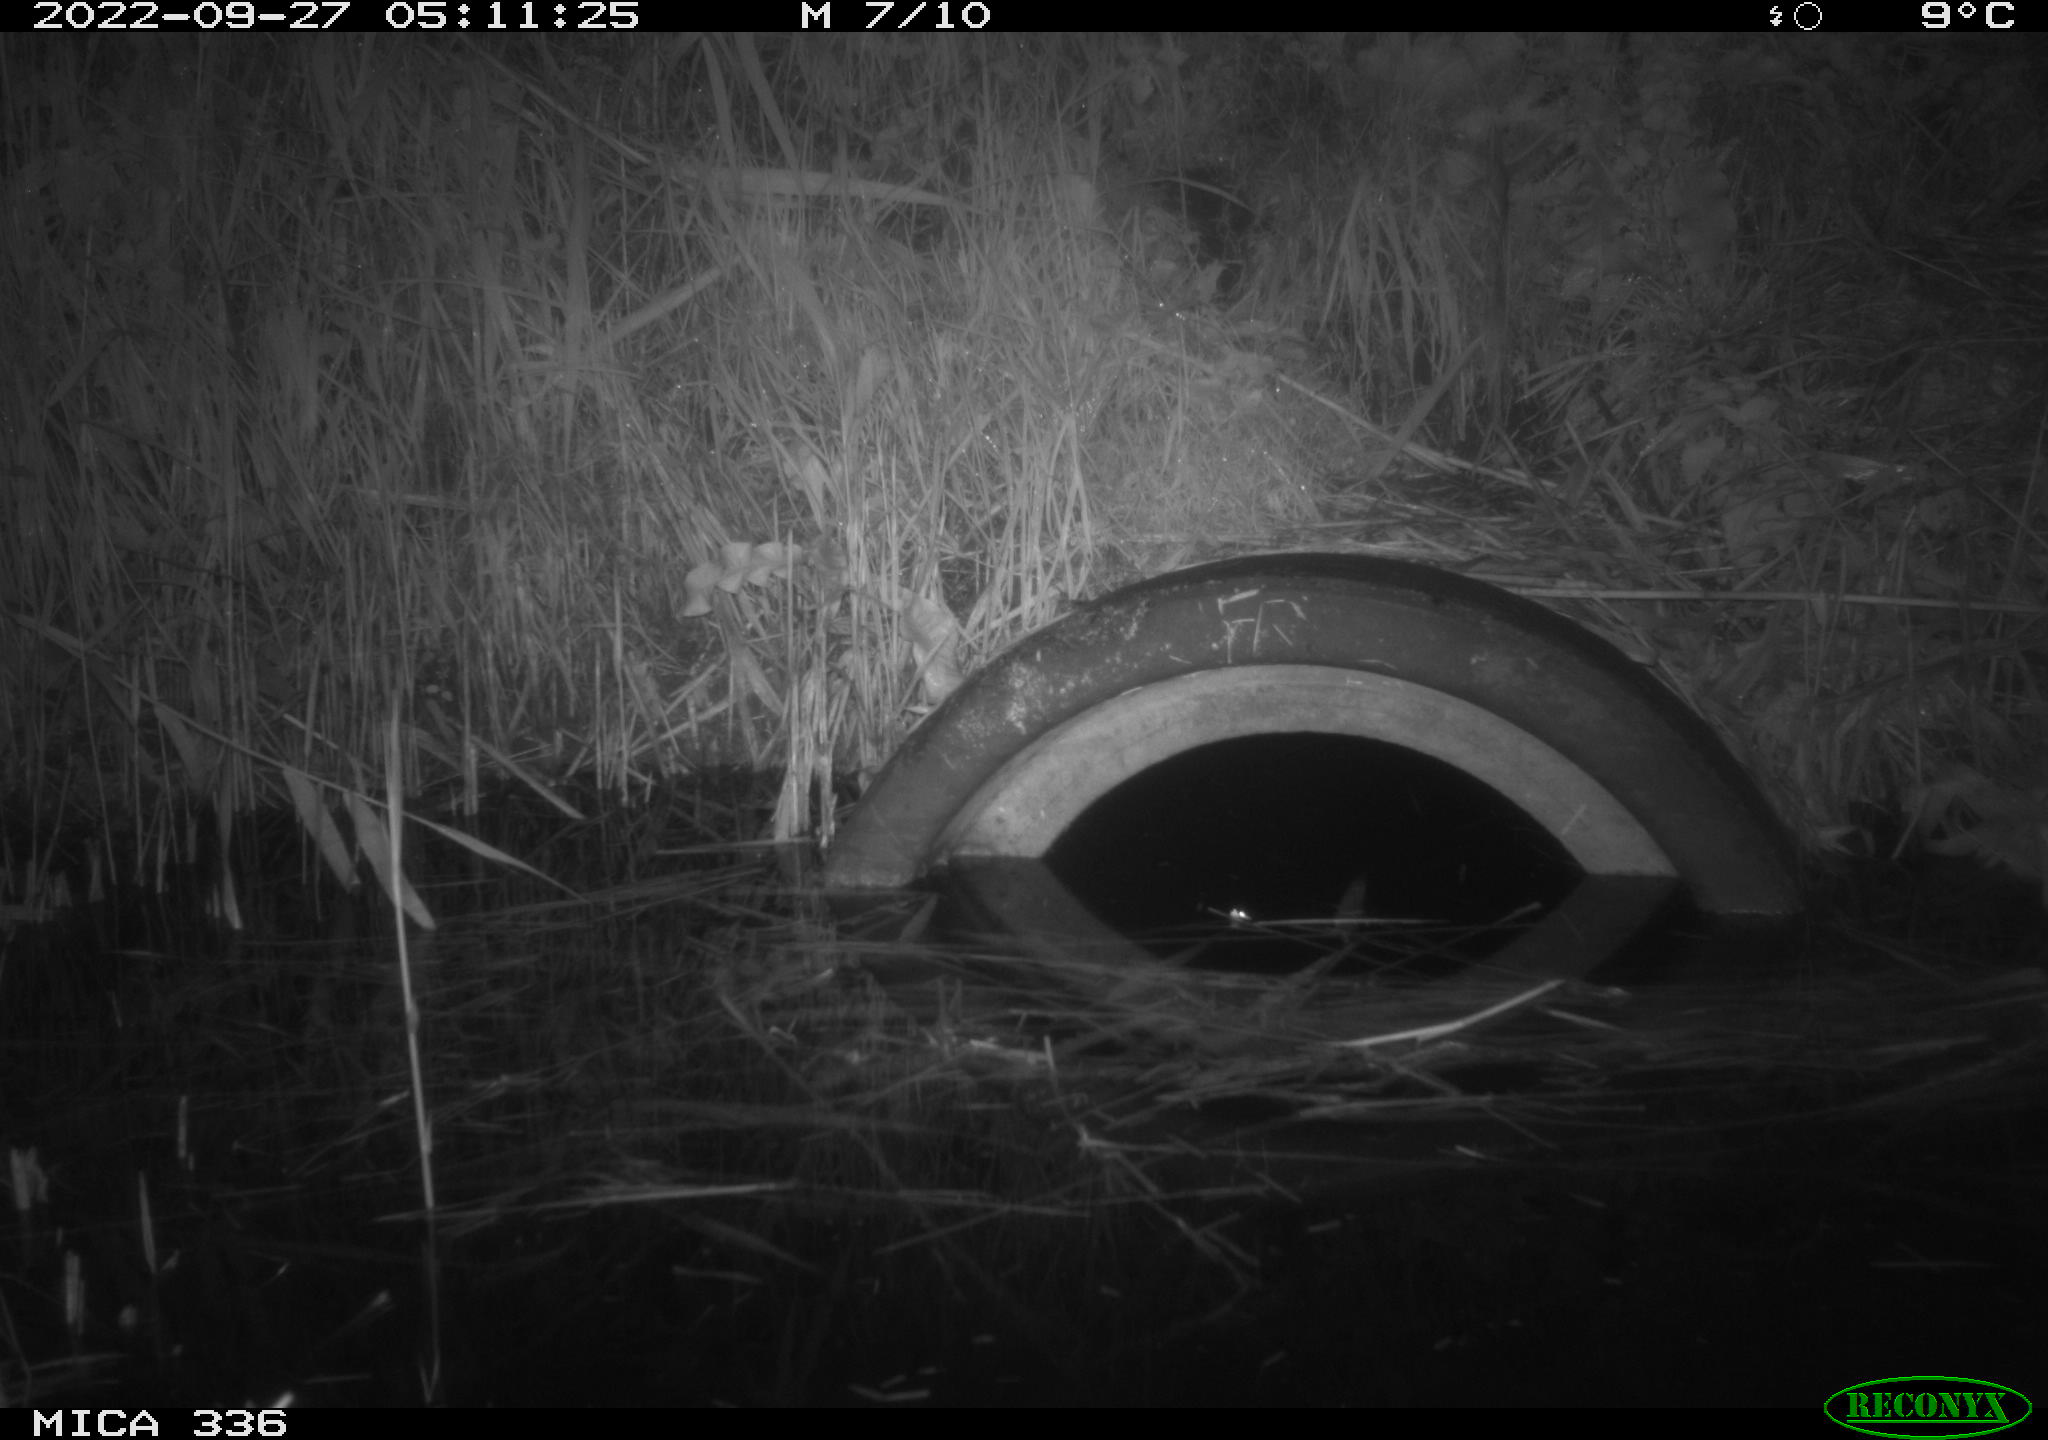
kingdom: Animalia
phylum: Chordata
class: Mammalia
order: Rodentia
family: Muridae
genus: Rattus
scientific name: Rattus norvegicus
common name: Brown rat
